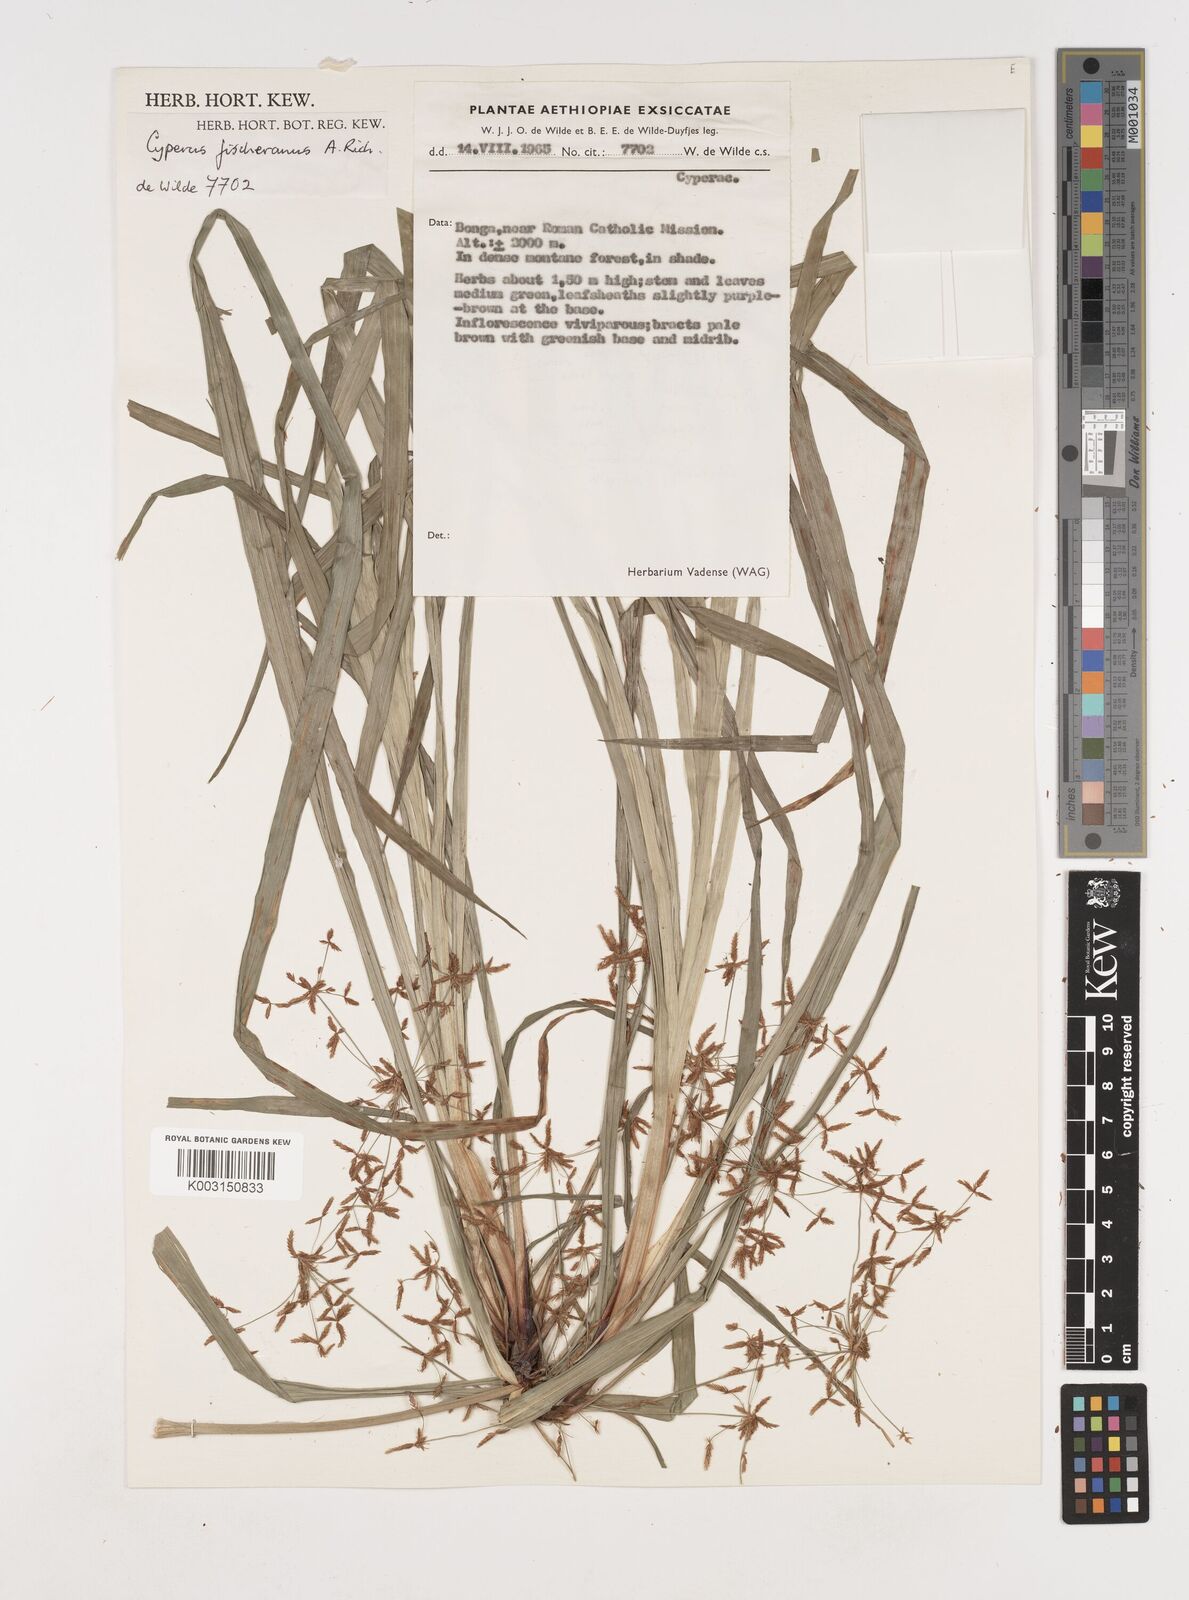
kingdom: Plantae
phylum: Tracheophyta
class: Liliopsida
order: Poales
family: Cyperaceae
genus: Cyperus
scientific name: Cyperus fischerianus
